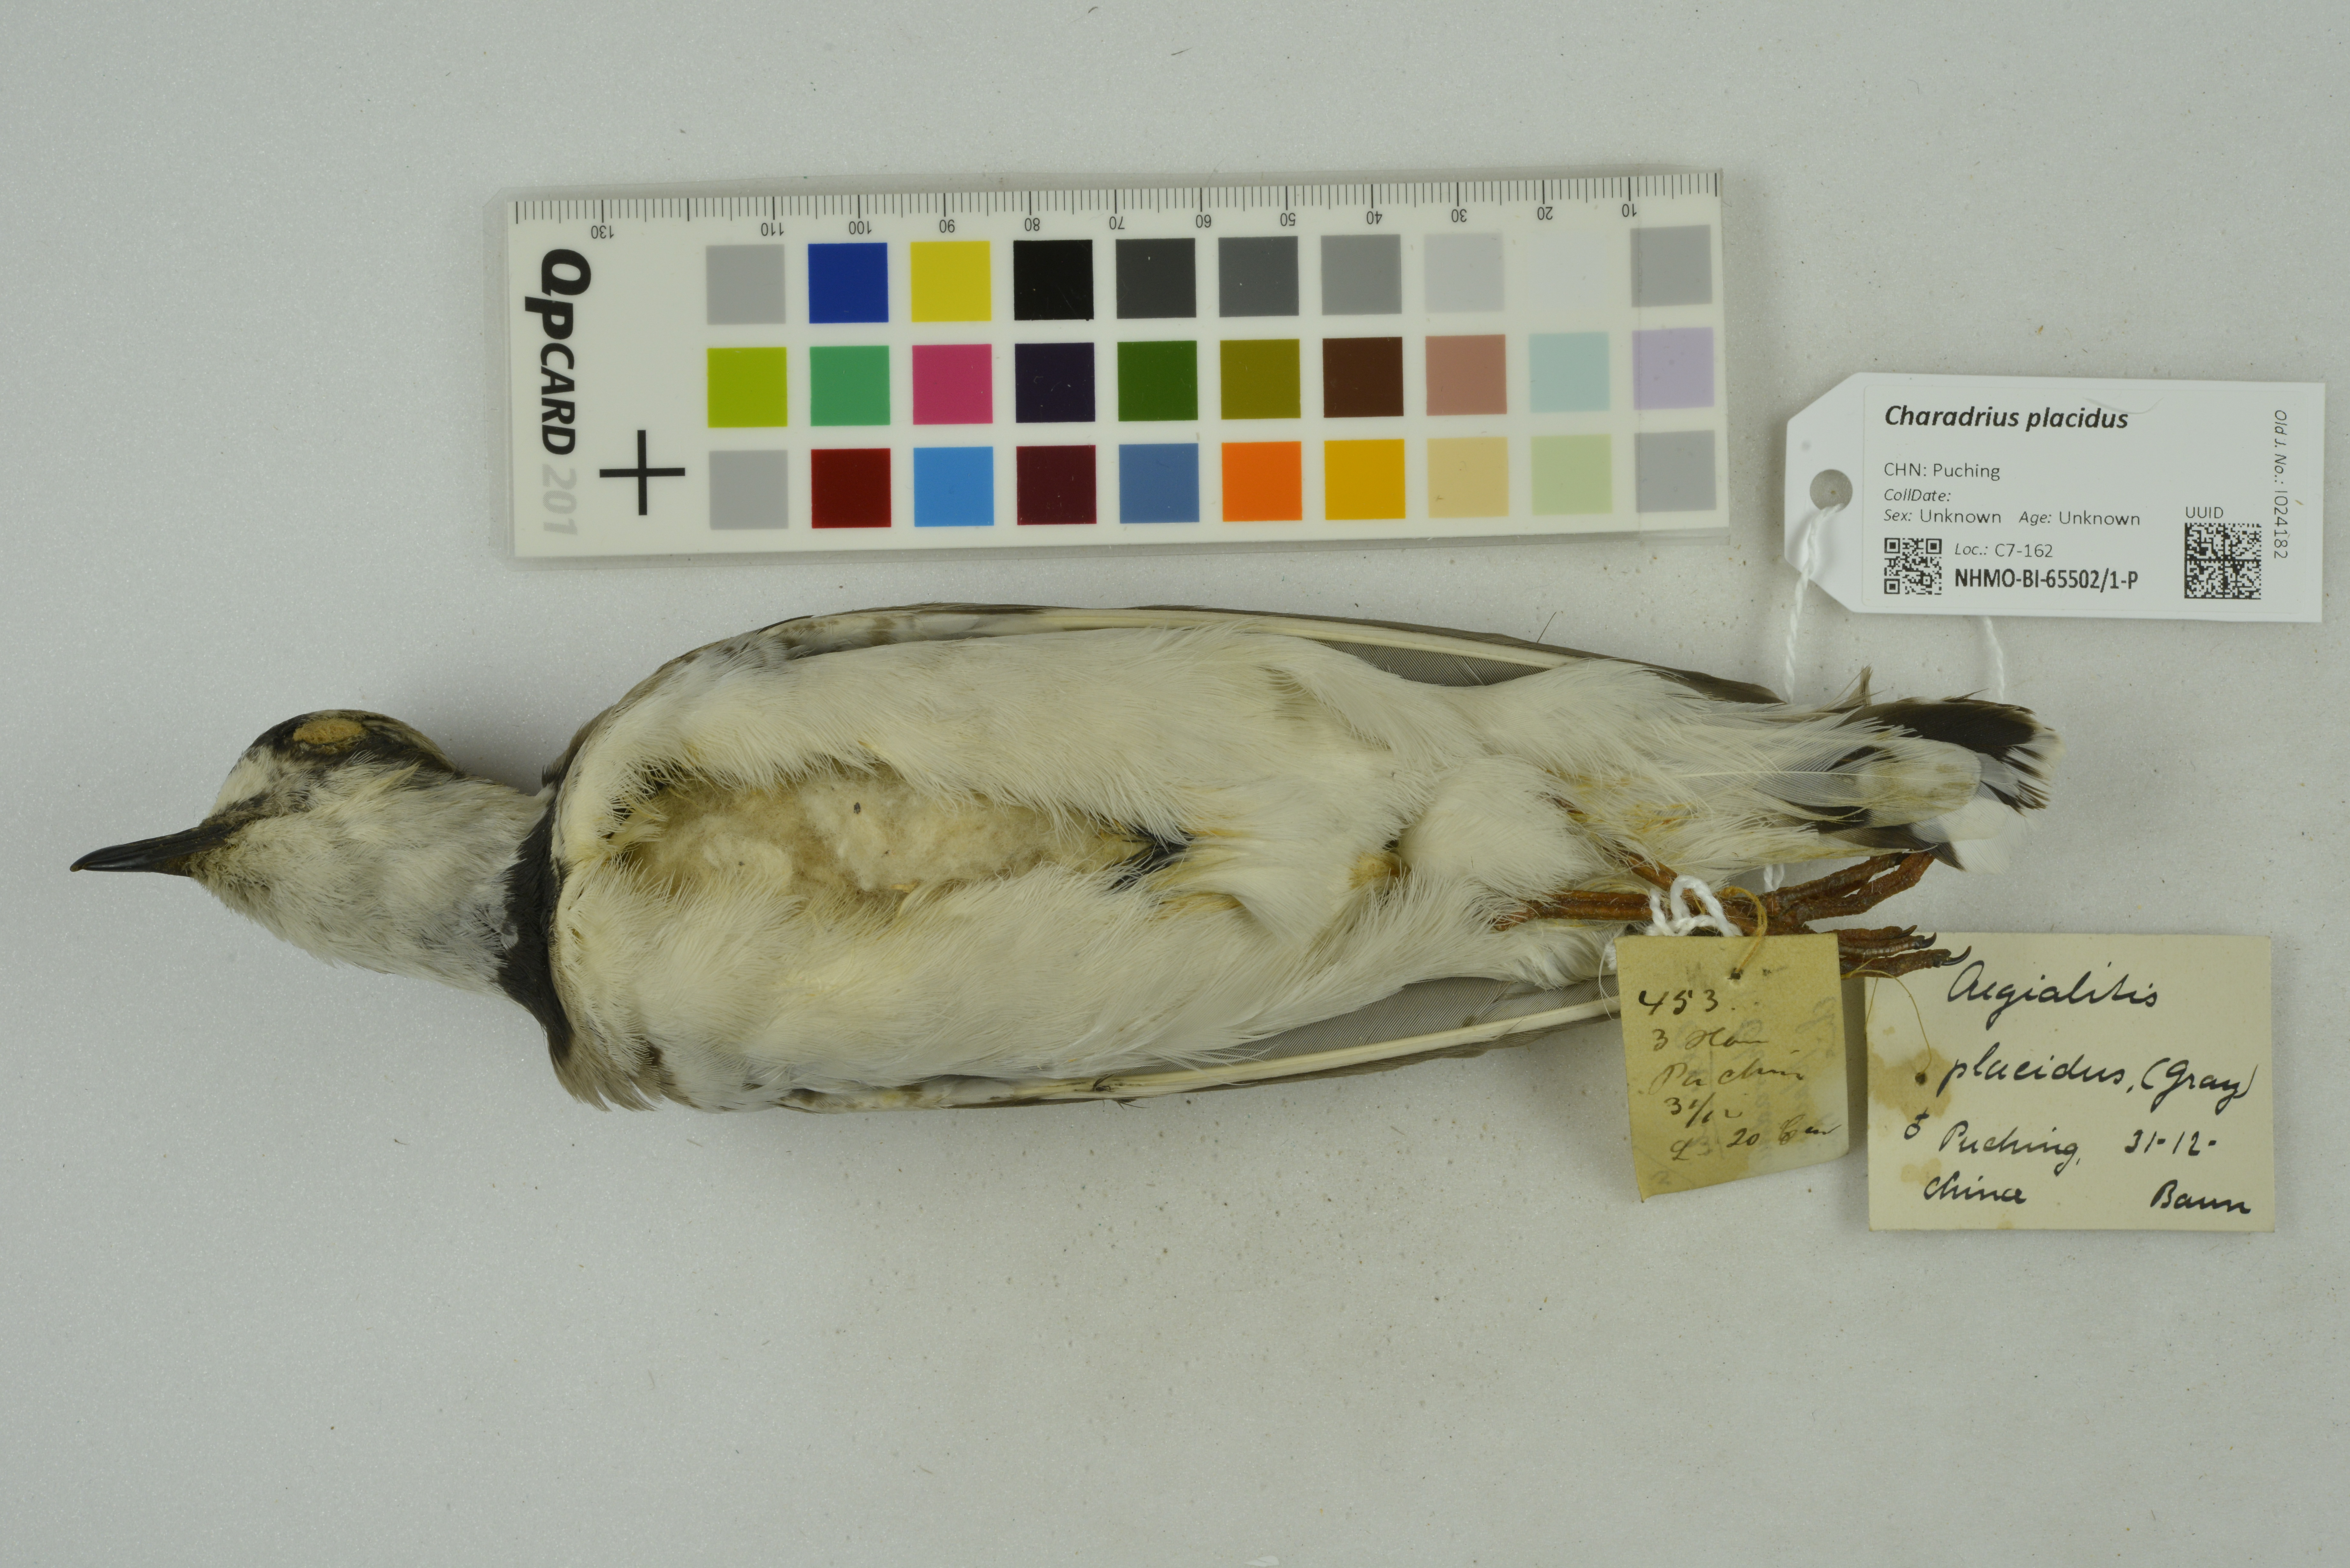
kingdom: Animalia
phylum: Chordata
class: Aves
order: Charadriiformes
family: Charadriidae
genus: Charadrius
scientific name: Charadrius placidus
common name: Long-billed plover
